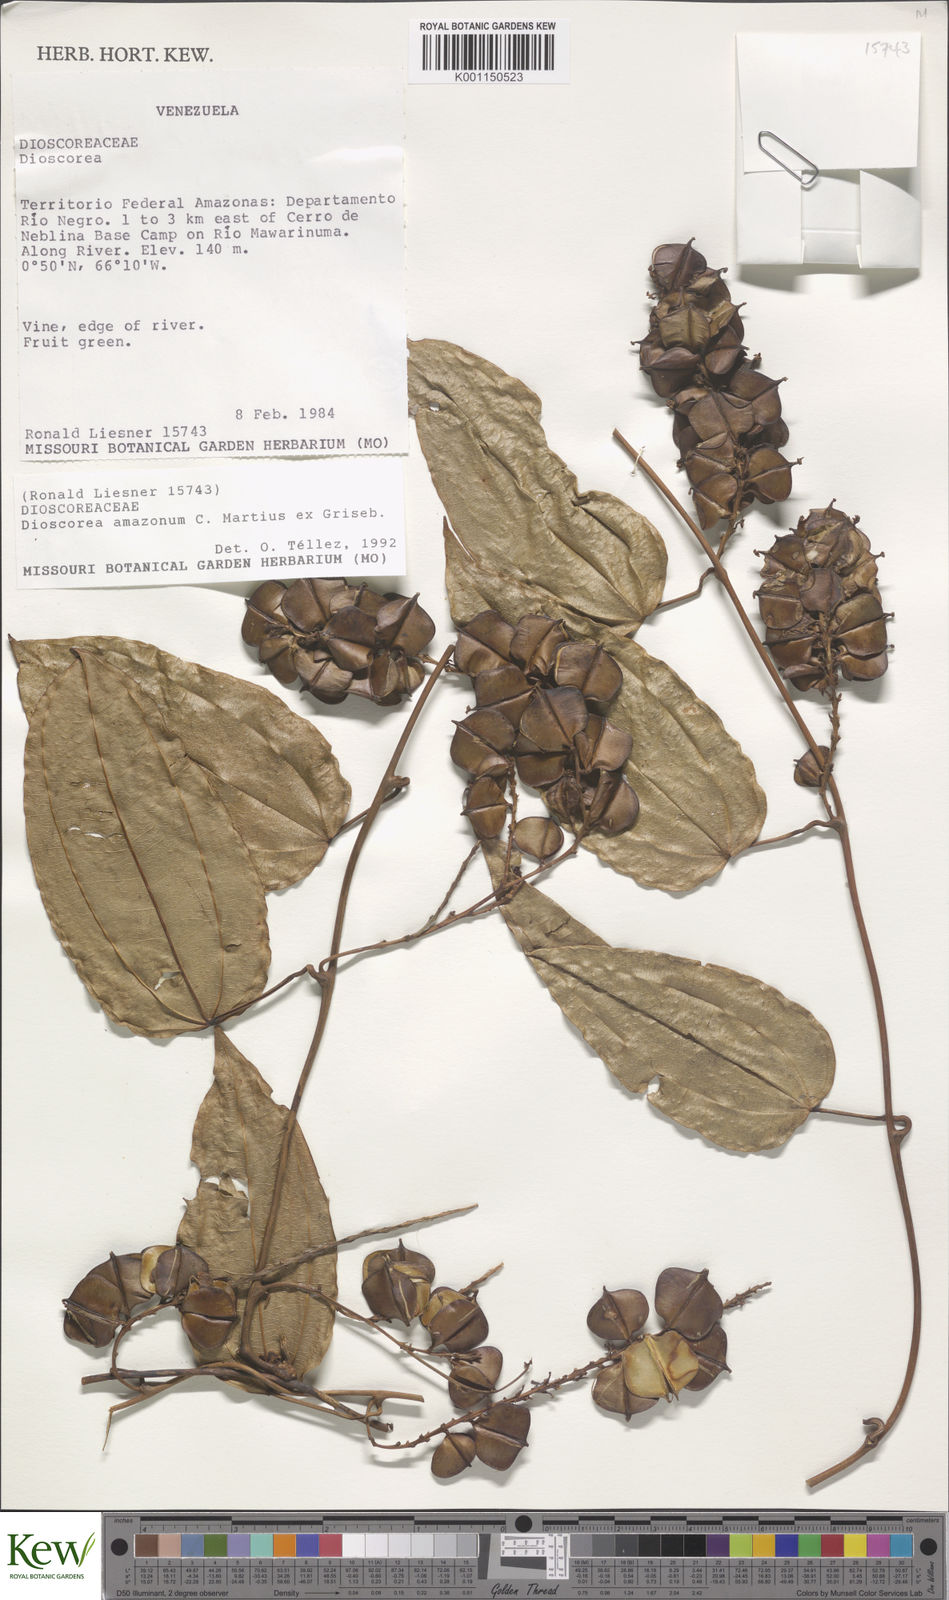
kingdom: Plantae
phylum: Tracheophyta
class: Liliopsida
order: Dioscoreales
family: Dioscoreaceae
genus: Dioscorea
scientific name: Dioscorea amazonum
